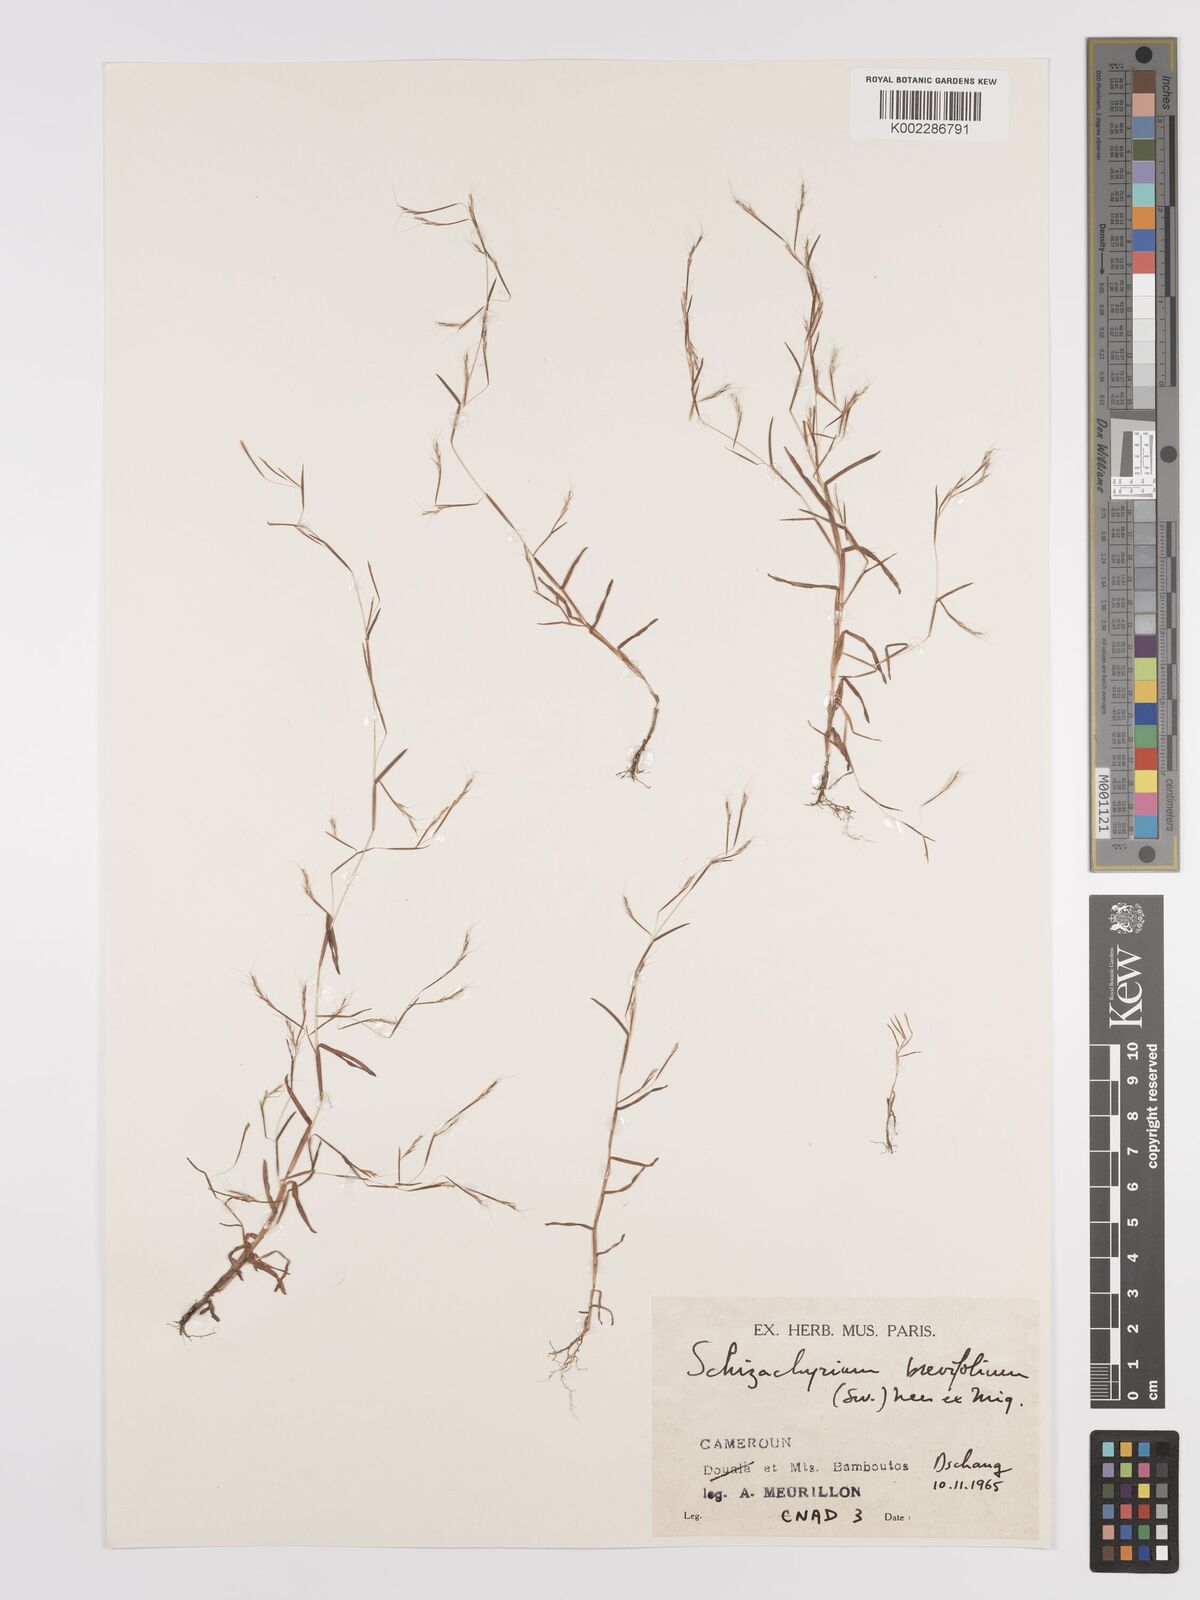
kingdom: Plantae
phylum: Tracheophyta
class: Liliopsida
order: Poales
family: Poaceae
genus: Schizachyrium
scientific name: Schizachyrium brevifolium
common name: Serillo dulce
